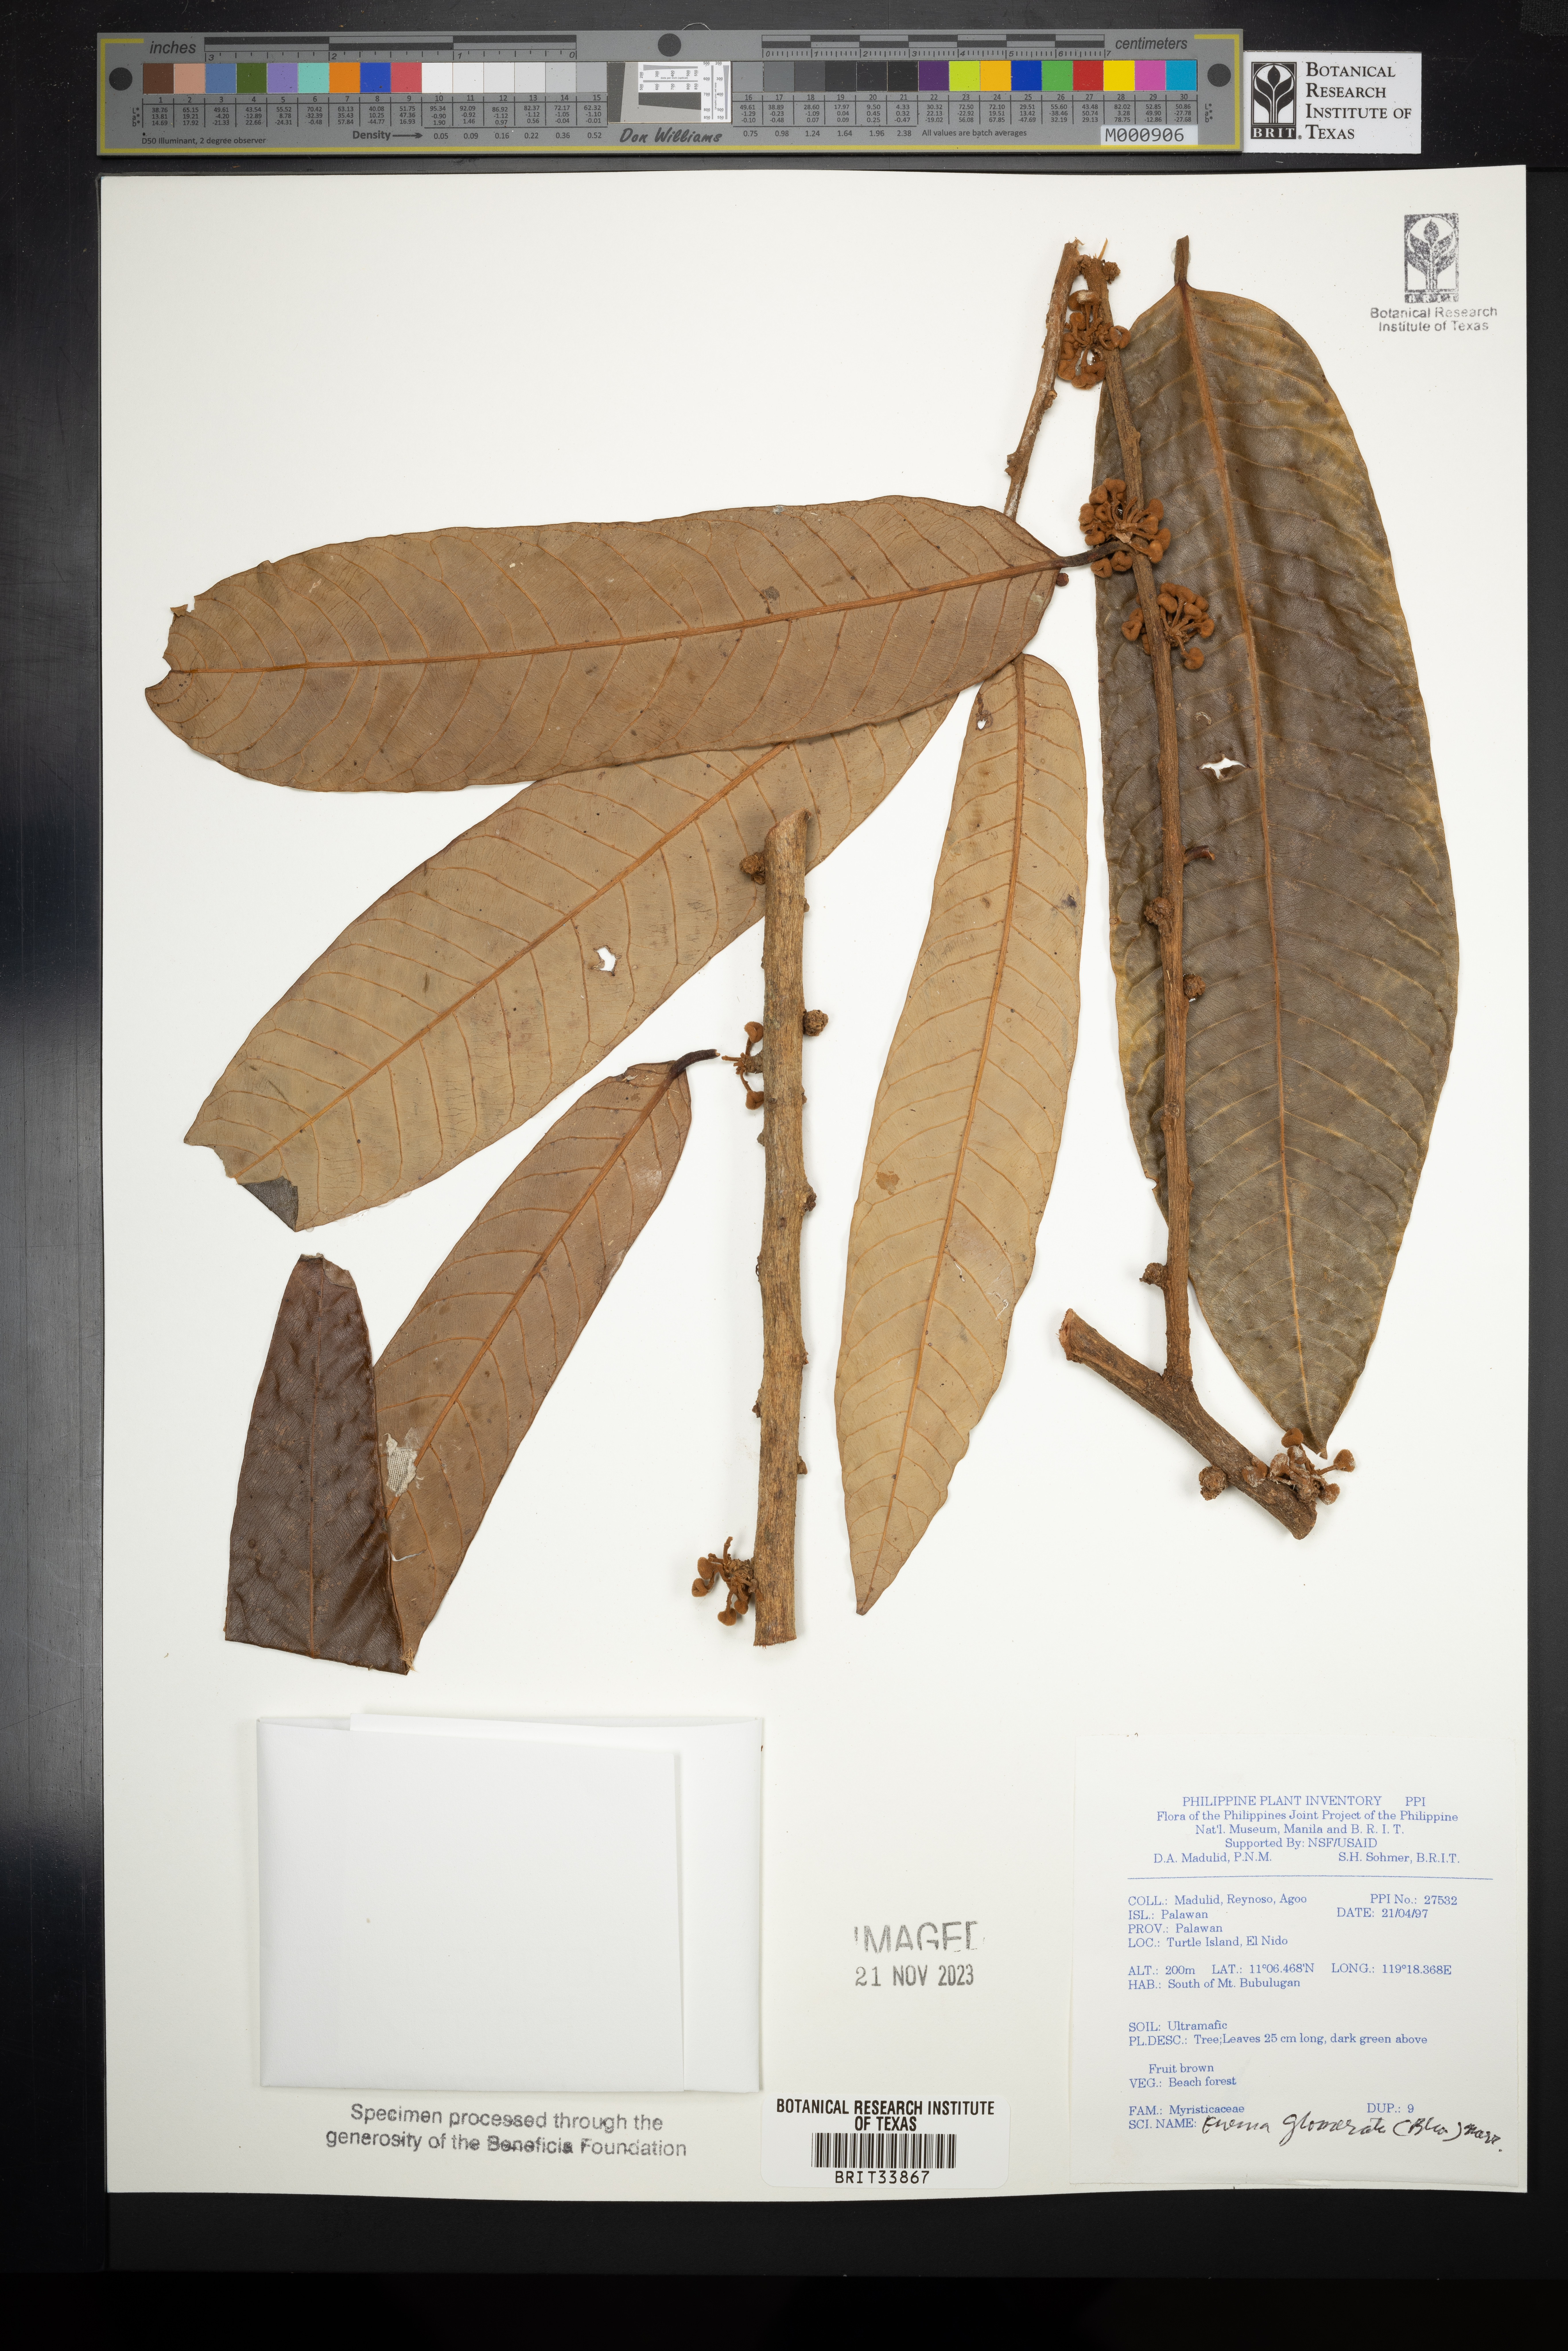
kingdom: Plantae
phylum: Tracheophyta
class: Magnoliopsida
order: Magnoliales
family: Myristicaceae
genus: Knema
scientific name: Knema glomerata
